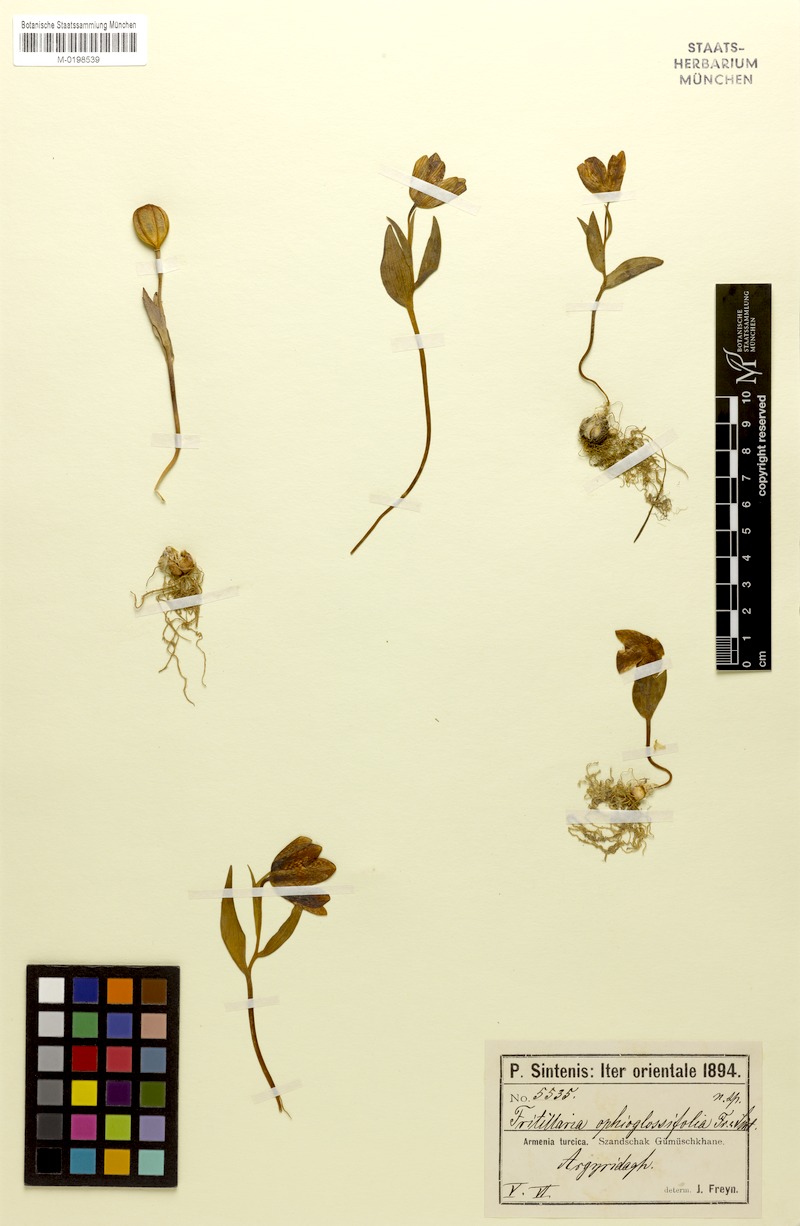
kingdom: Plantae
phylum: Tracheophyta
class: Liliopsida
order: Liliales
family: Liliaceae
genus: Fritillaria
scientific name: Fritillaria crassifolia
